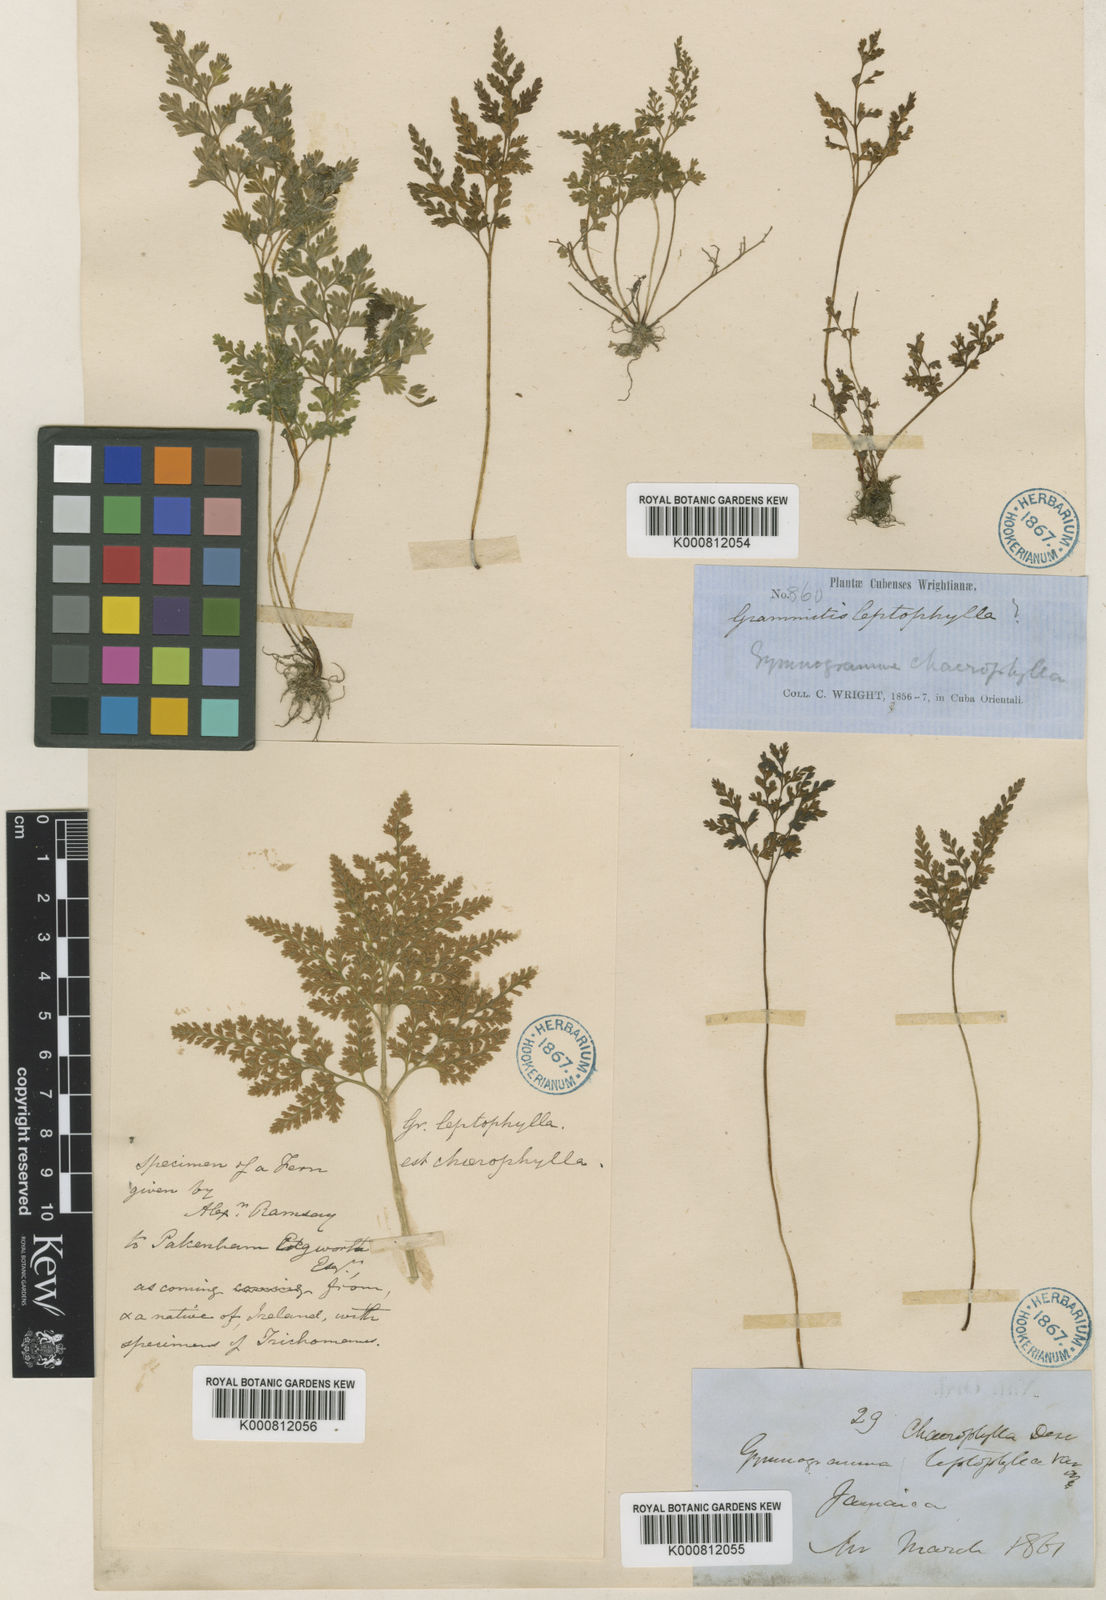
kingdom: Plantae
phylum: Tracheophyta
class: Polypodiopsida
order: Polypodiales
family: Pteridaceae
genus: Gastoniella
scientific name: Gastoniella chaerophylla
